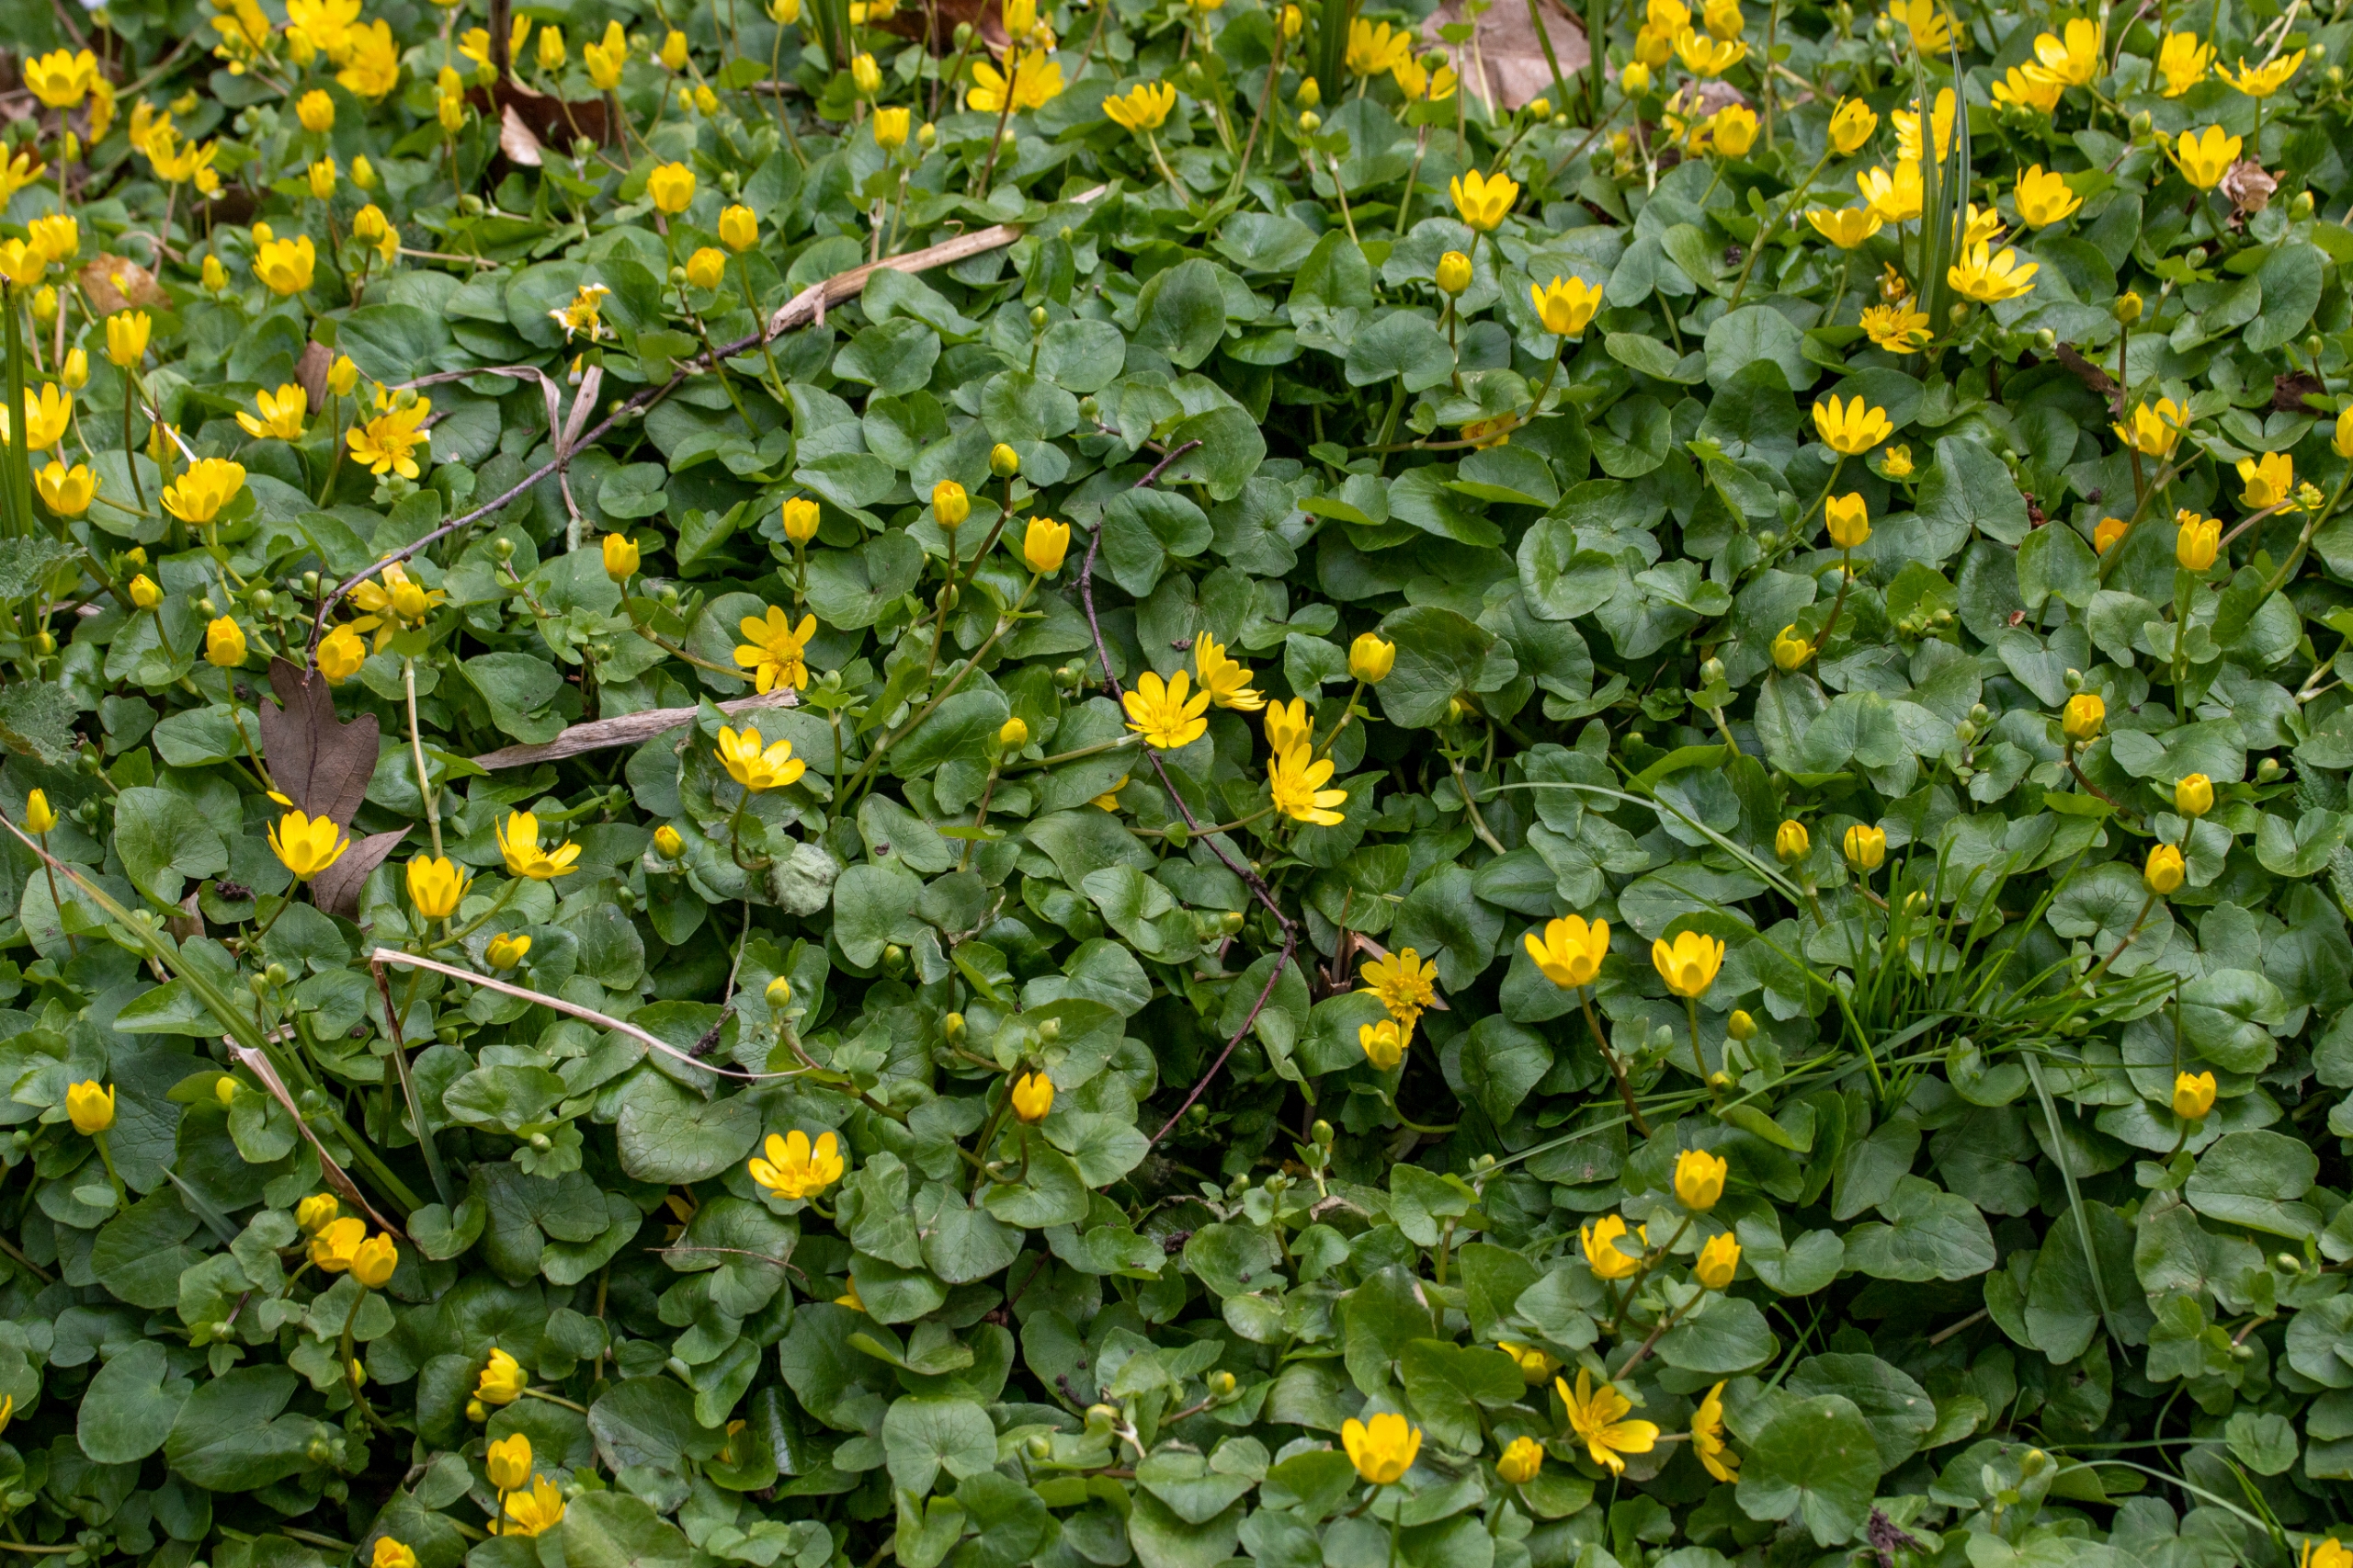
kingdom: Plantae
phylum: Tracheophyta
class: Magnoliopsida
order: Ranunculales
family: Ranunculaceae
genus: Ficaria
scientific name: Ficaria verna
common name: Vorterod
